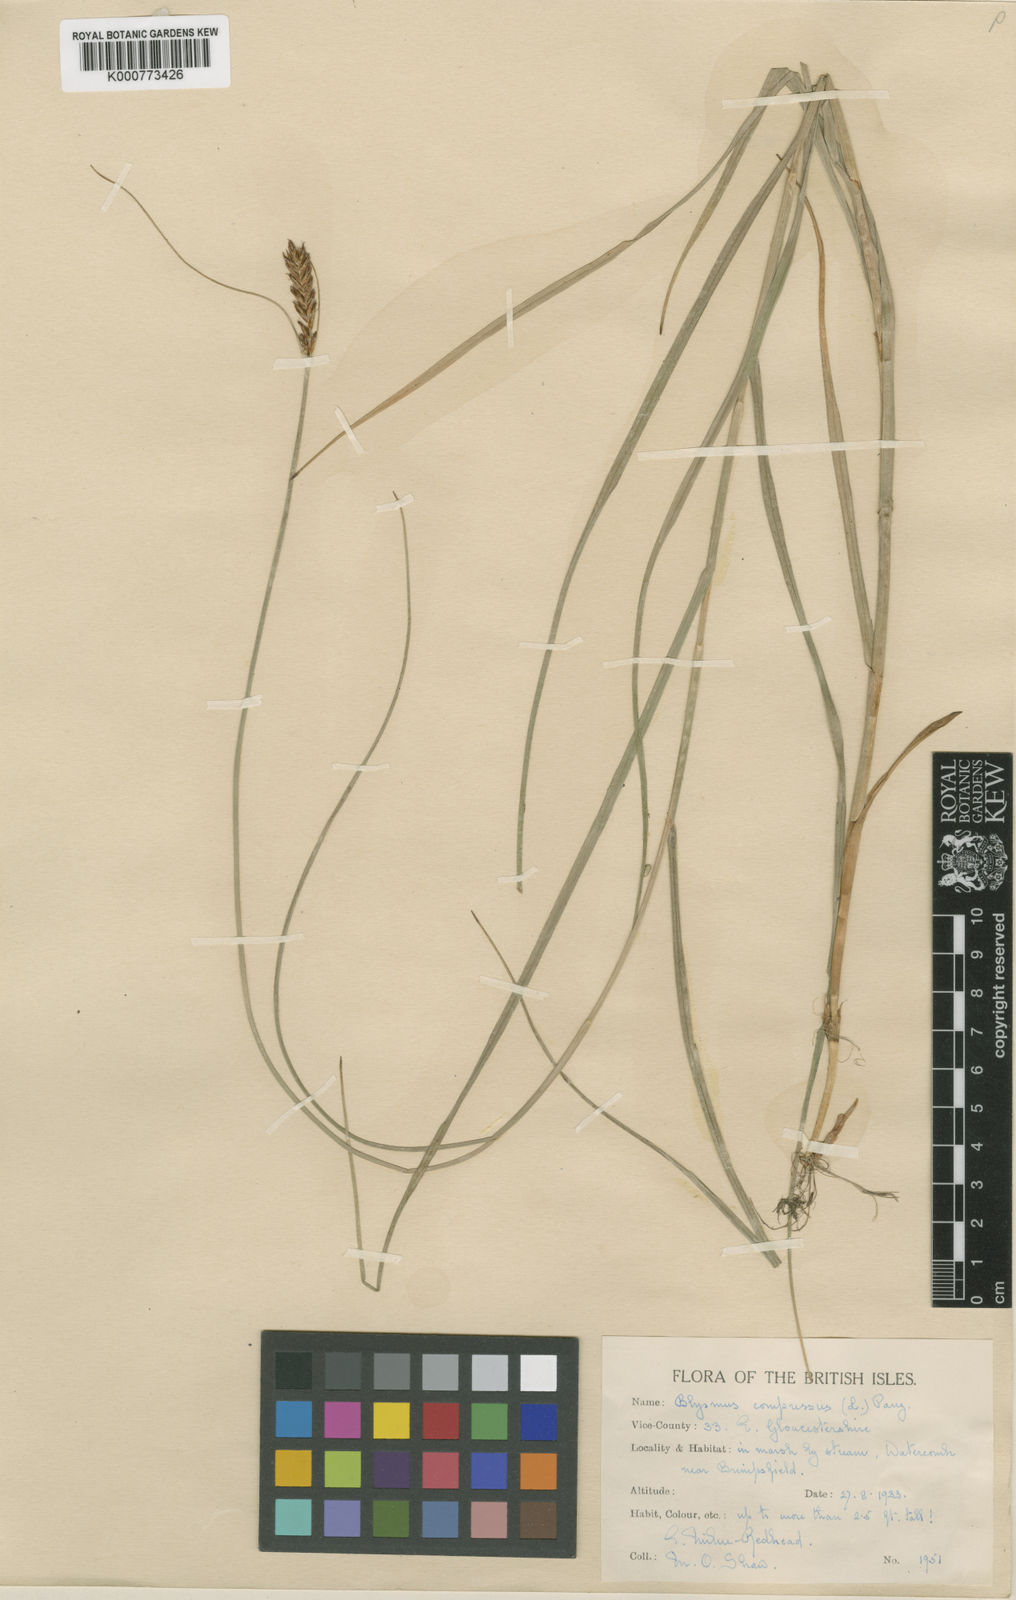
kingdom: Plantae
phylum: Tracheophyta
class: Liliopsida
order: Poales
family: Cyperaceae
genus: Blysmus
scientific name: Blysmus compressus
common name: Flat-sedge
